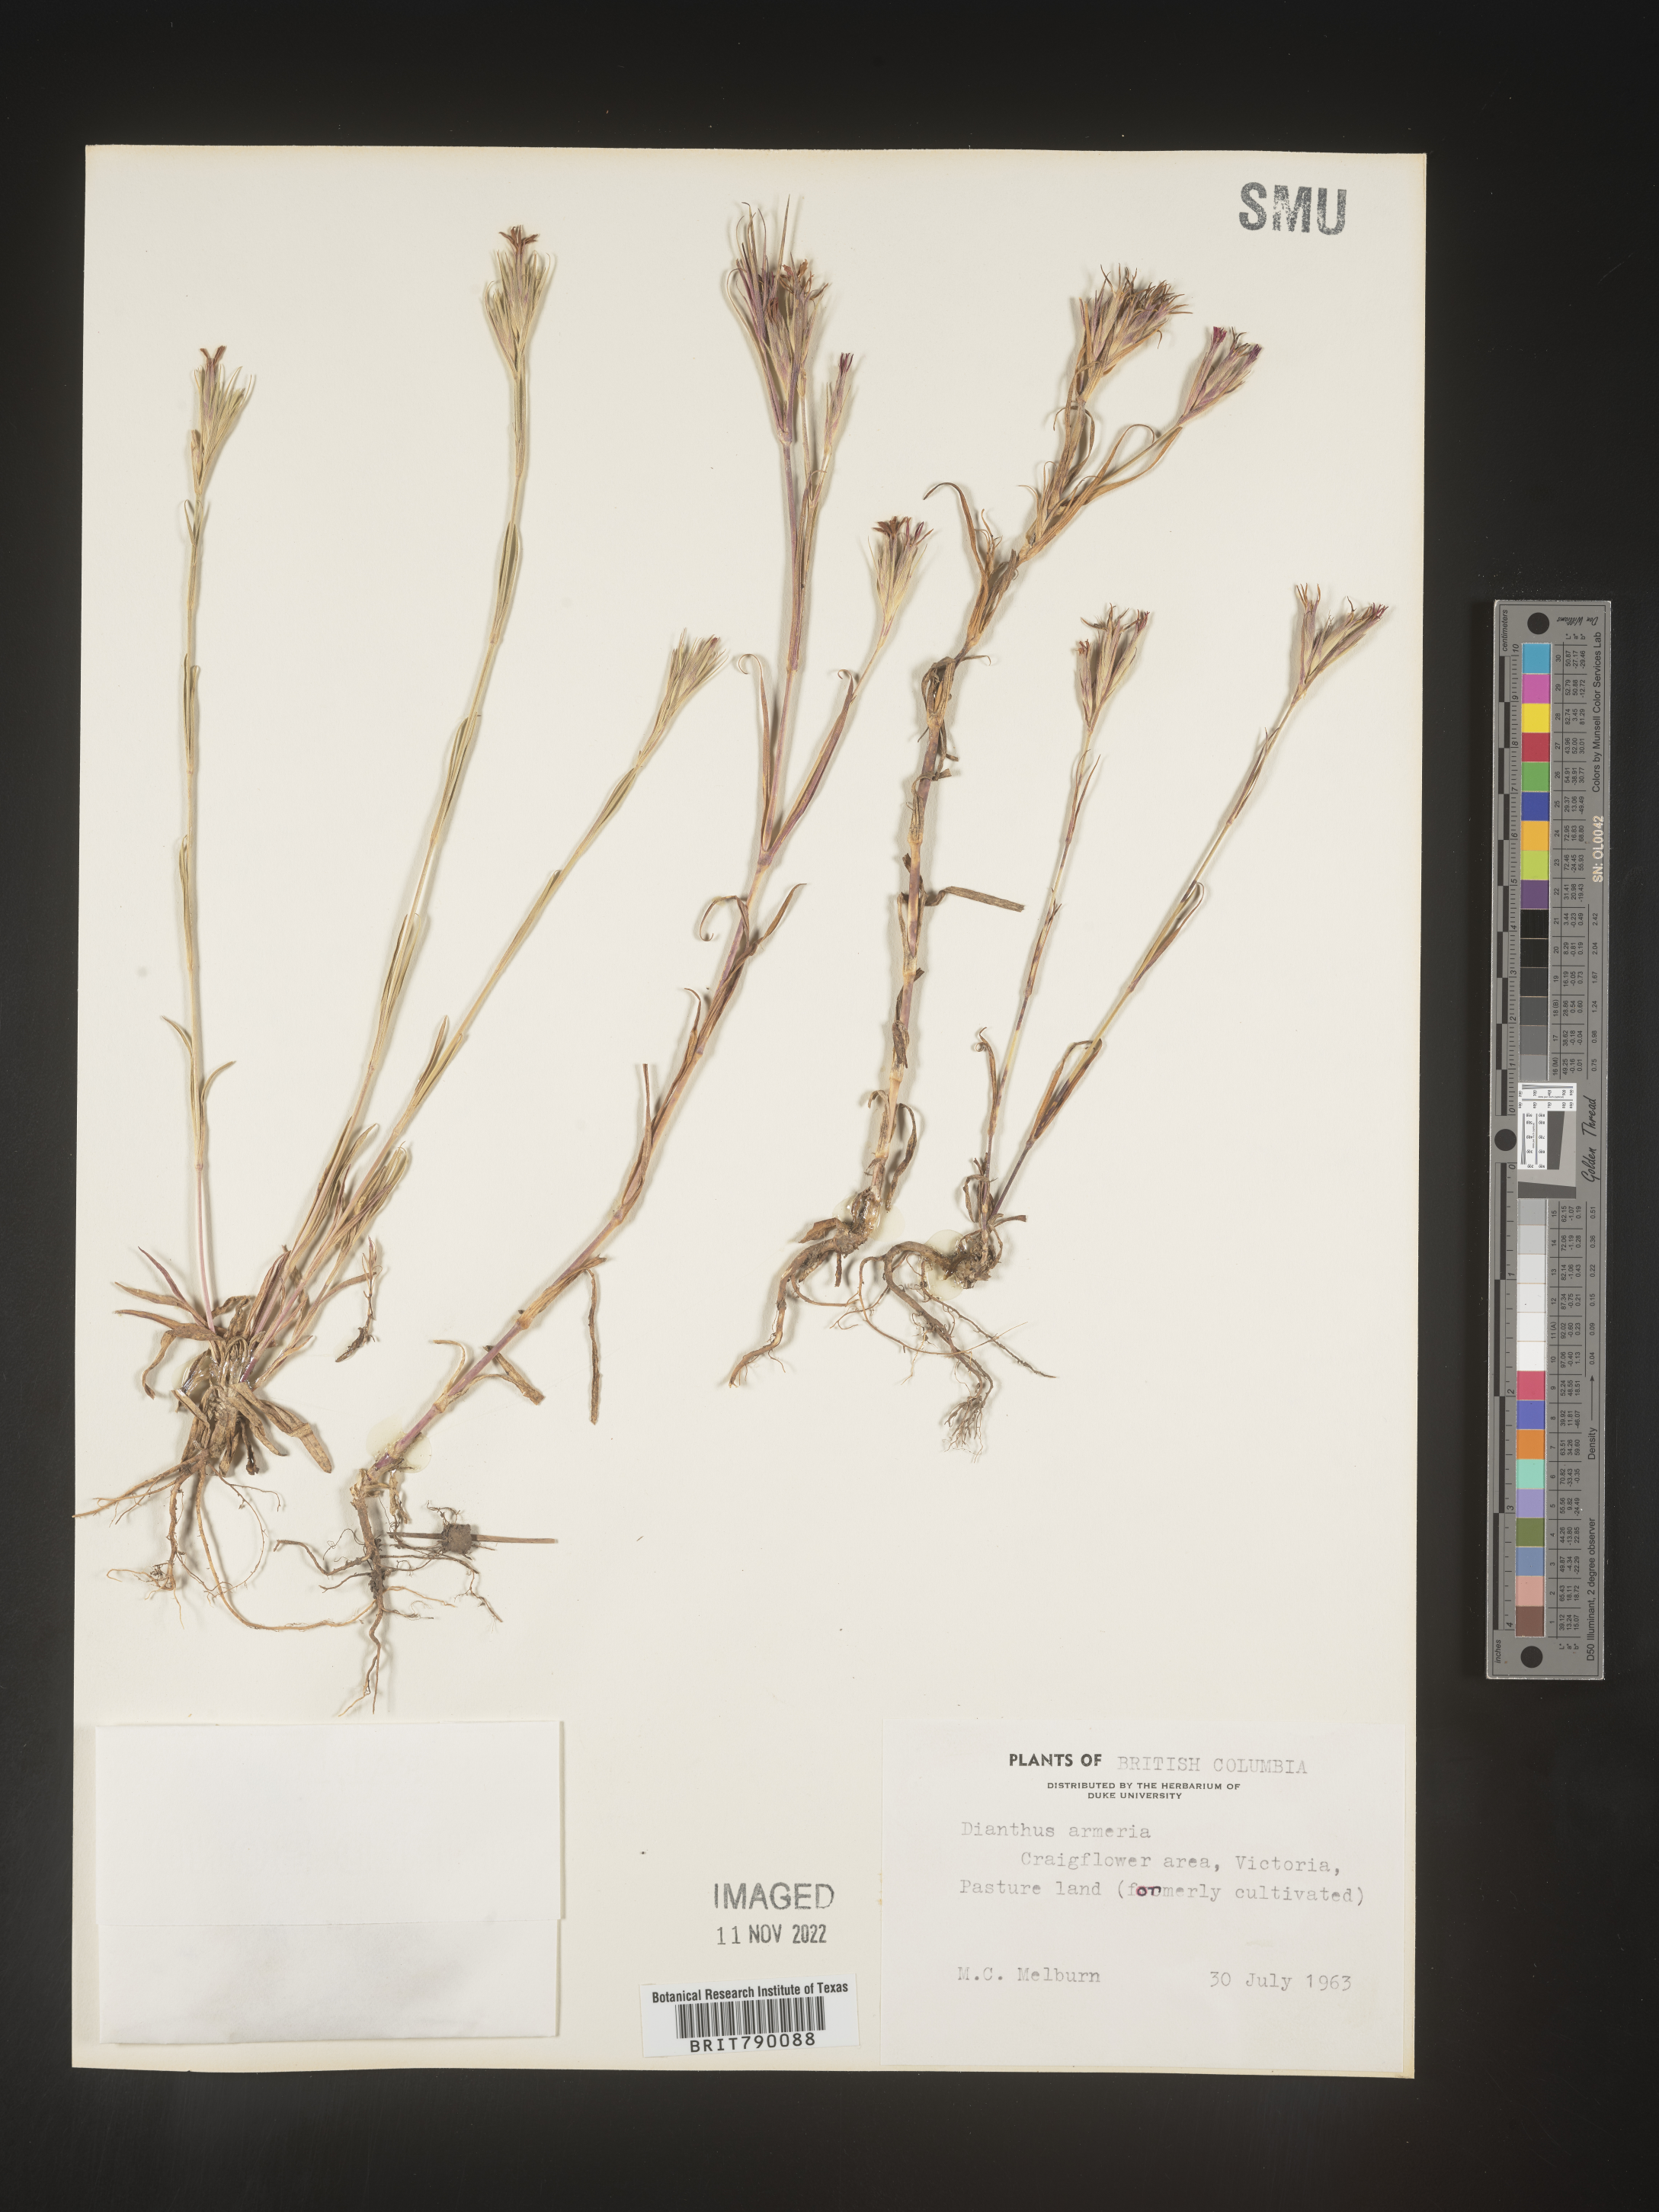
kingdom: Plantae
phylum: Tracheophyta
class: Magnoliopsida
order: Caryophyllales
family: Caryophyllaceae
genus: Dianthus
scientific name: Dianthus armeria
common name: Deptford pink
